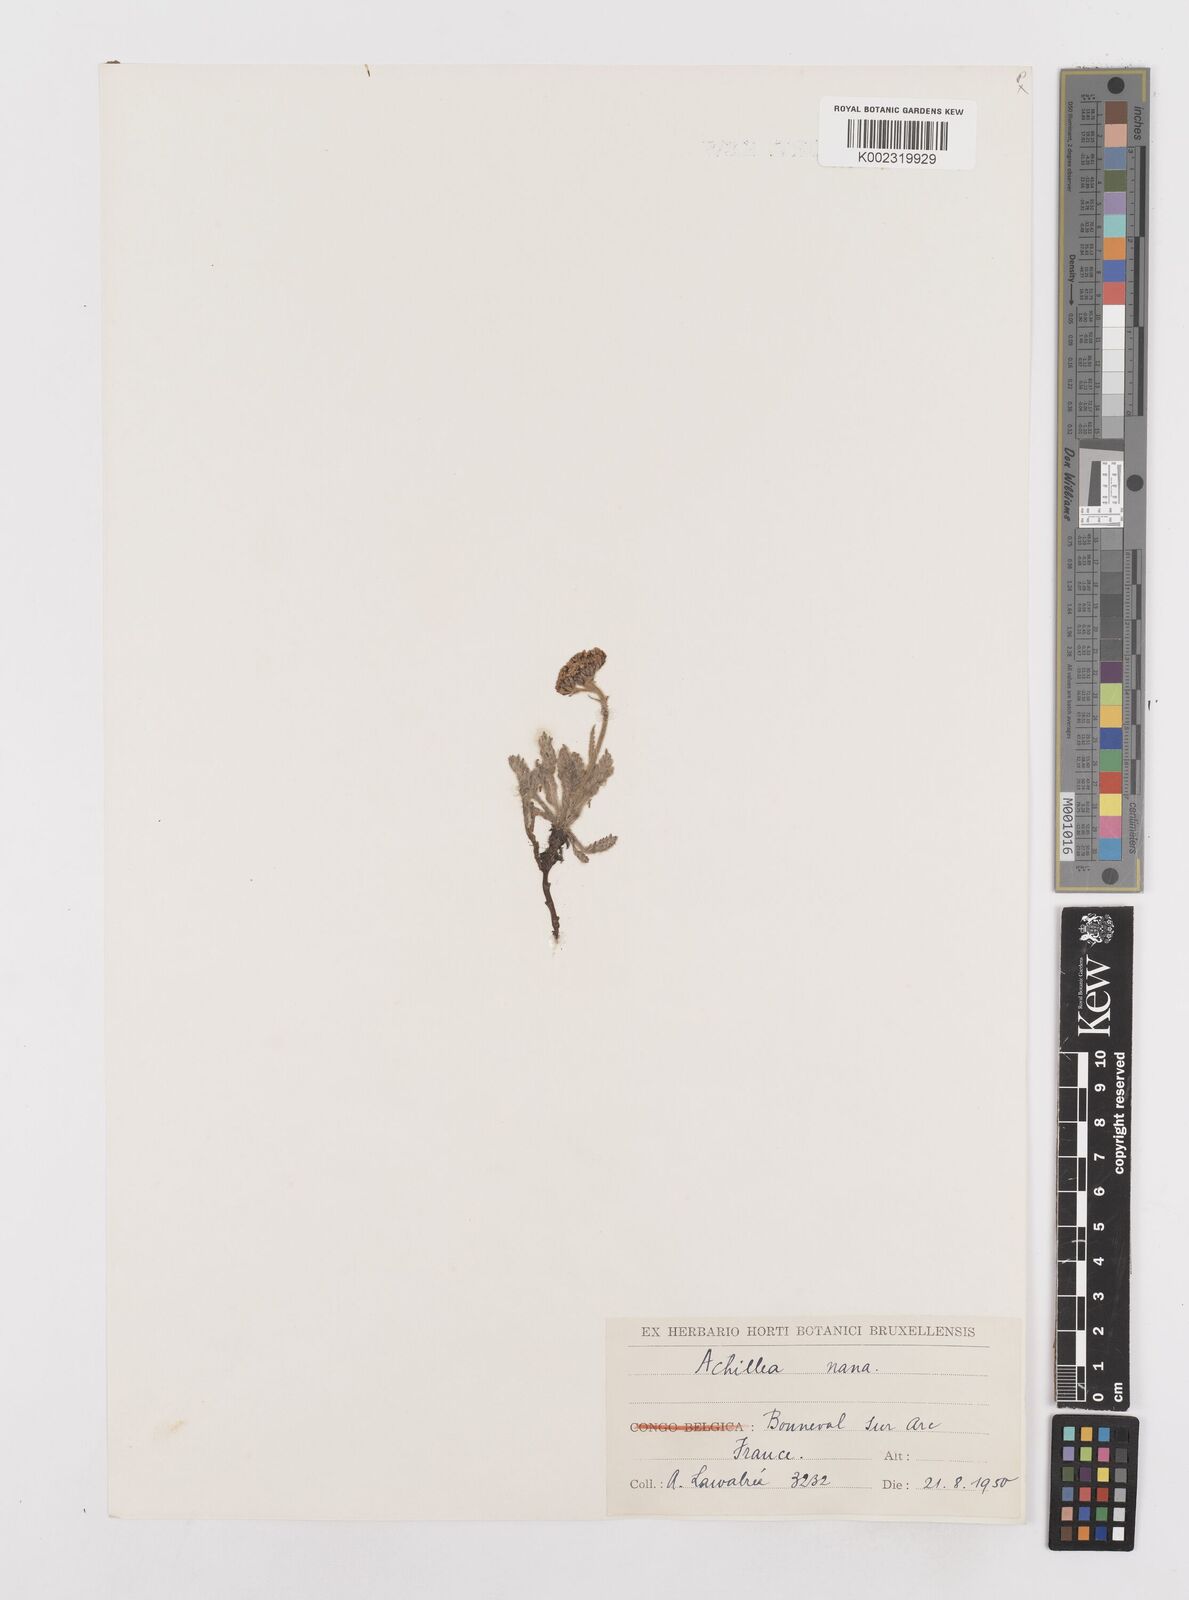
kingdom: Plantae
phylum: Tracheophyta
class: Magnoliopsida
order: Asterales
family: Asteraceae
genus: Achillea
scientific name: Achillea
